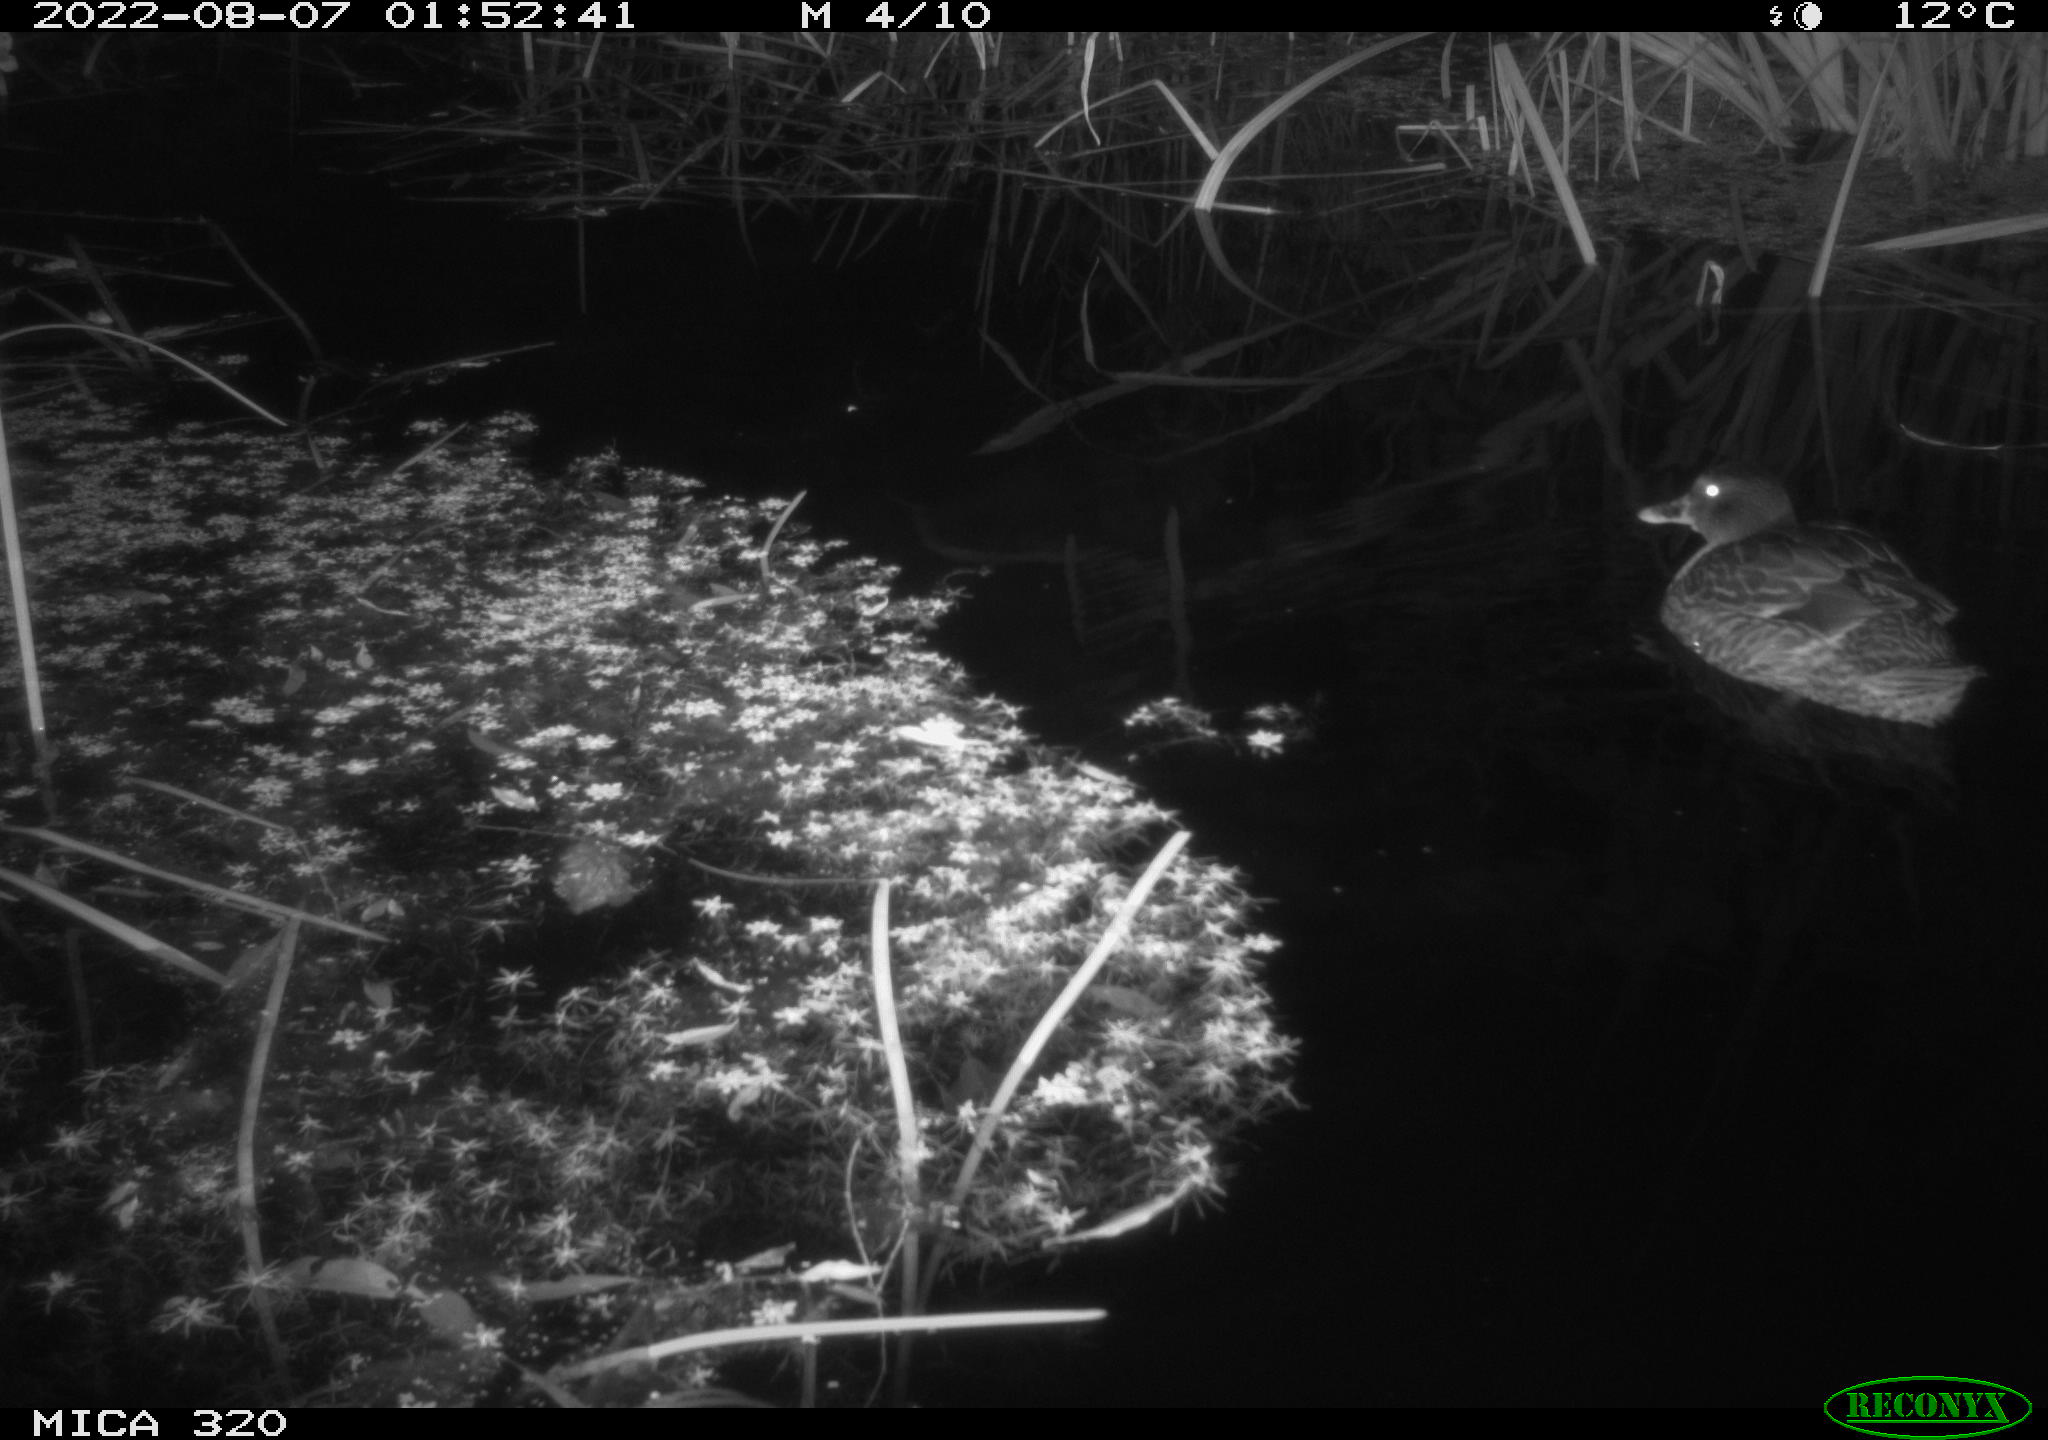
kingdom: Animalia
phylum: Chordata
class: Aves
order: Anseriformes
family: Anatidae
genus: Anas
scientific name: Anas platyrhynchos
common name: Mallard
